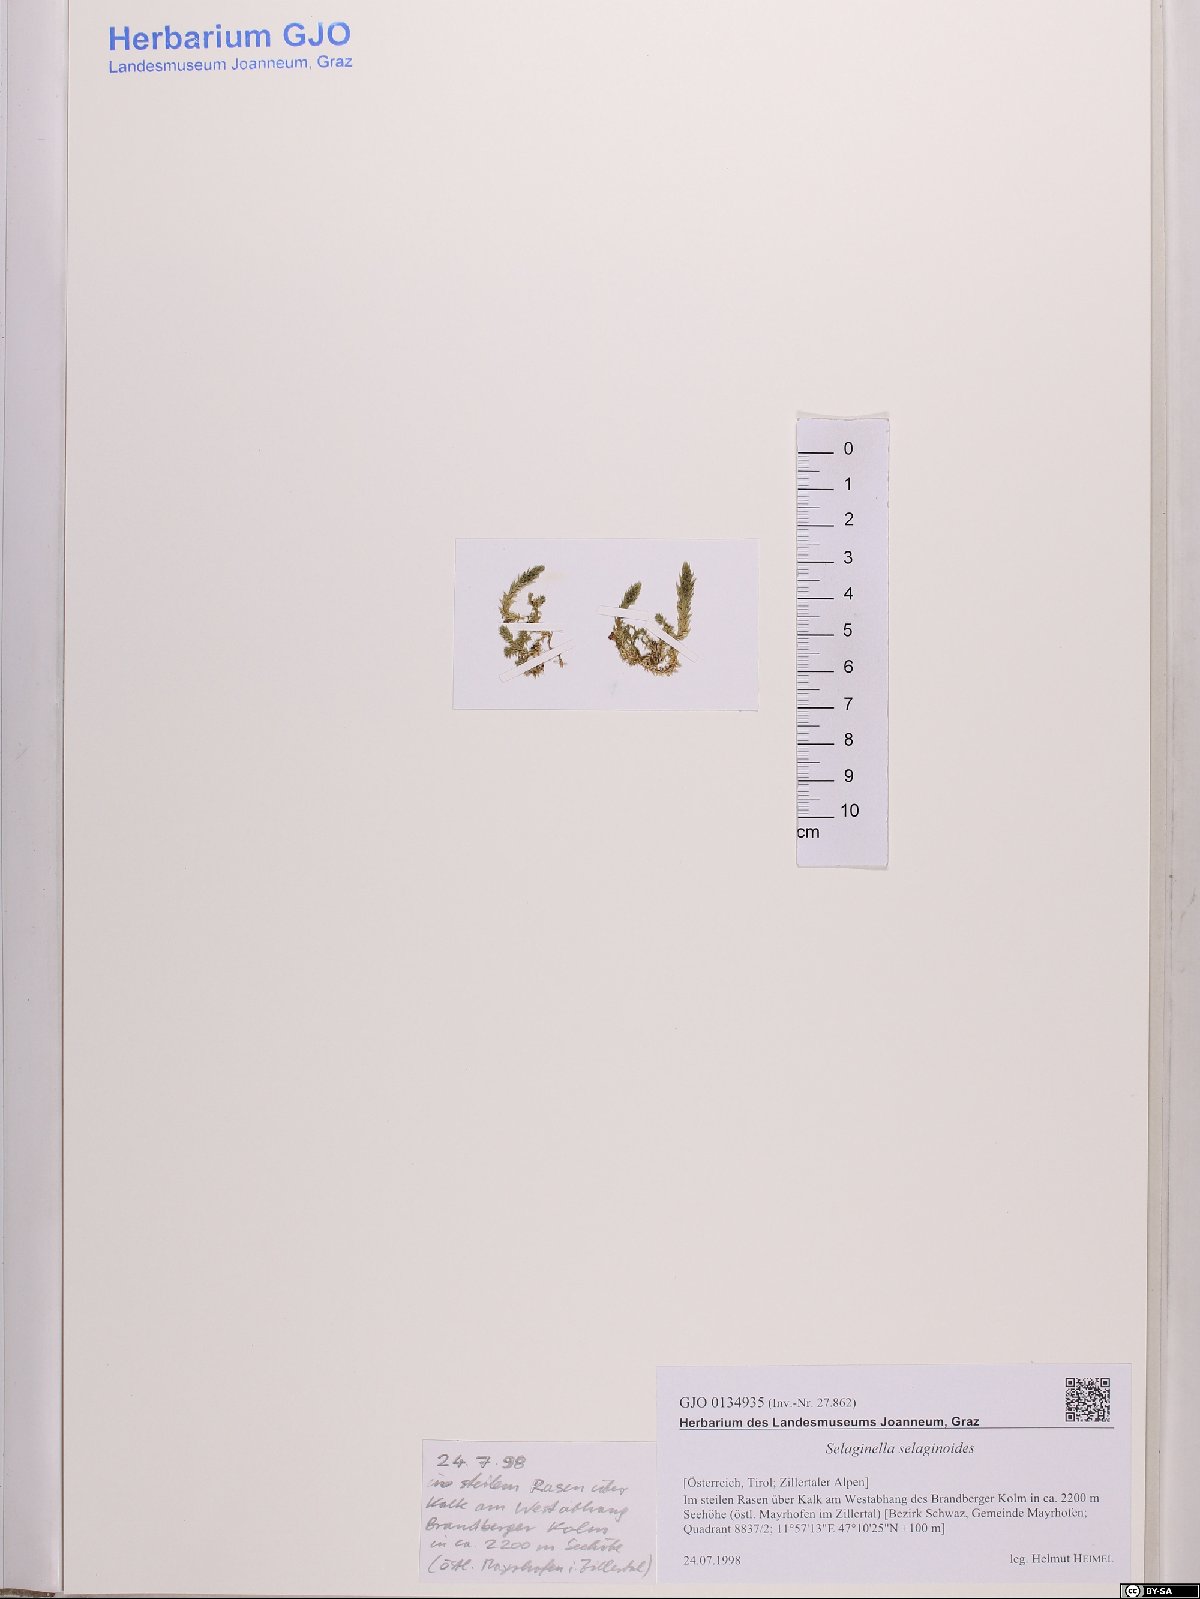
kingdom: Plantae
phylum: Tracheophyta
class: Lycopodiopsida
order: Selaginellales
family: Selaginellaceae
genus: Selaginella
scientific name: Selaginella selaginoides
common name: Prickly mountain-moss
